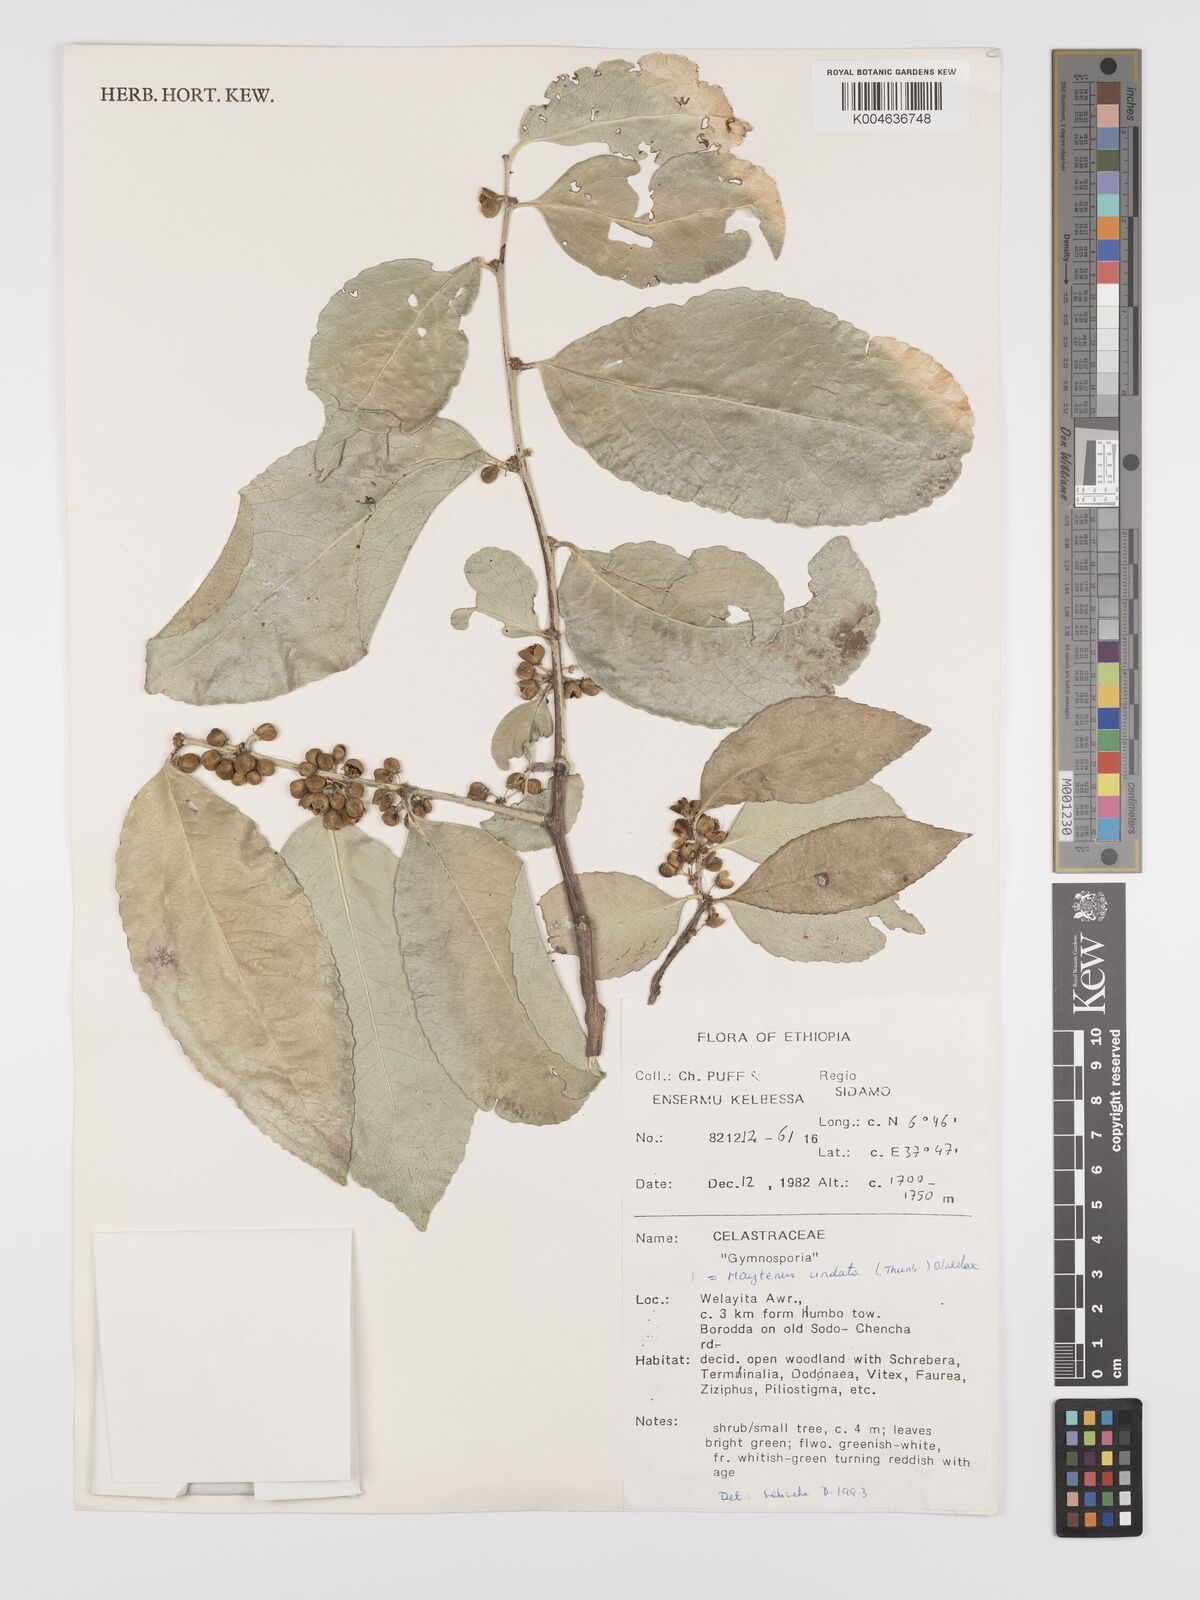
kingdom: Plantae
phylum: Tracheophyta
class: Magnoliopsida
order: Celastrales
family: Celastraceae
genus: Gymnosporia
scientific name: Gymnosporia undata
